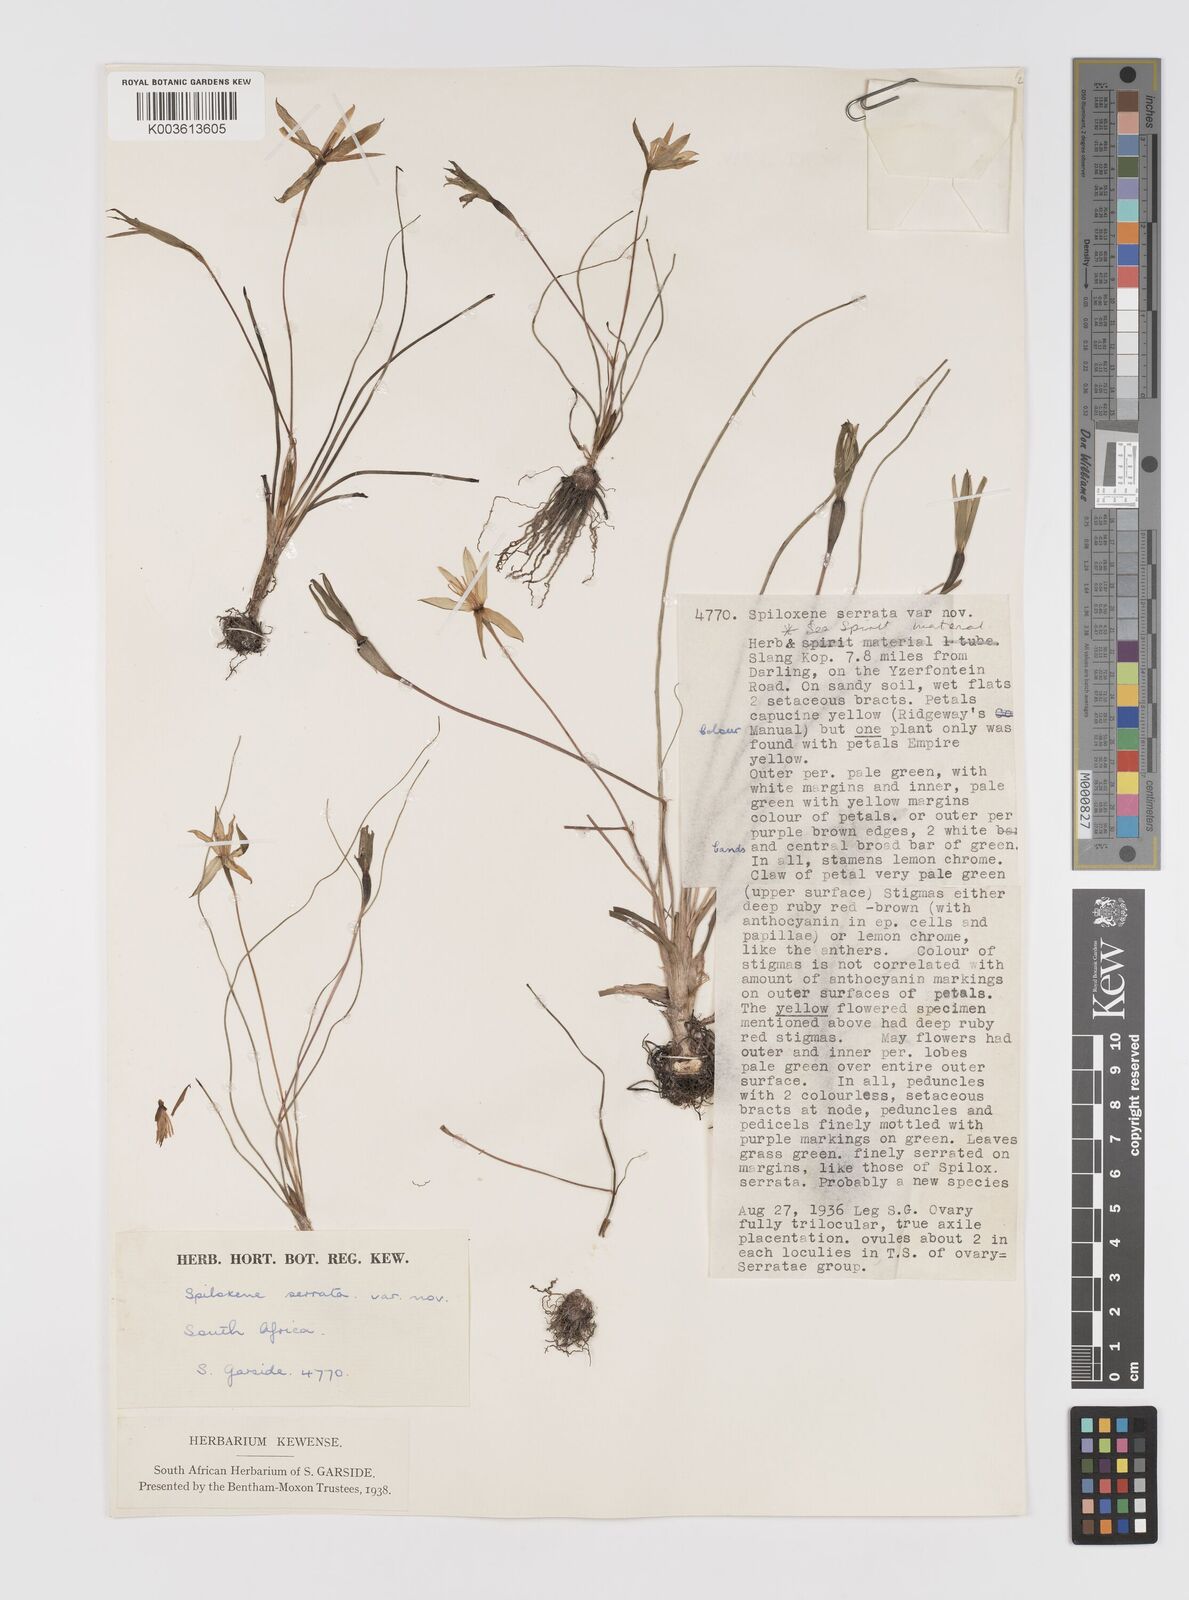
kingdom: Plantae
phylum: Tracheophyta
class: Liliopsida
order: Asparagales
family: Hypoxidaceae
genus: Pauridia
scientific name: Pauridia serrata
